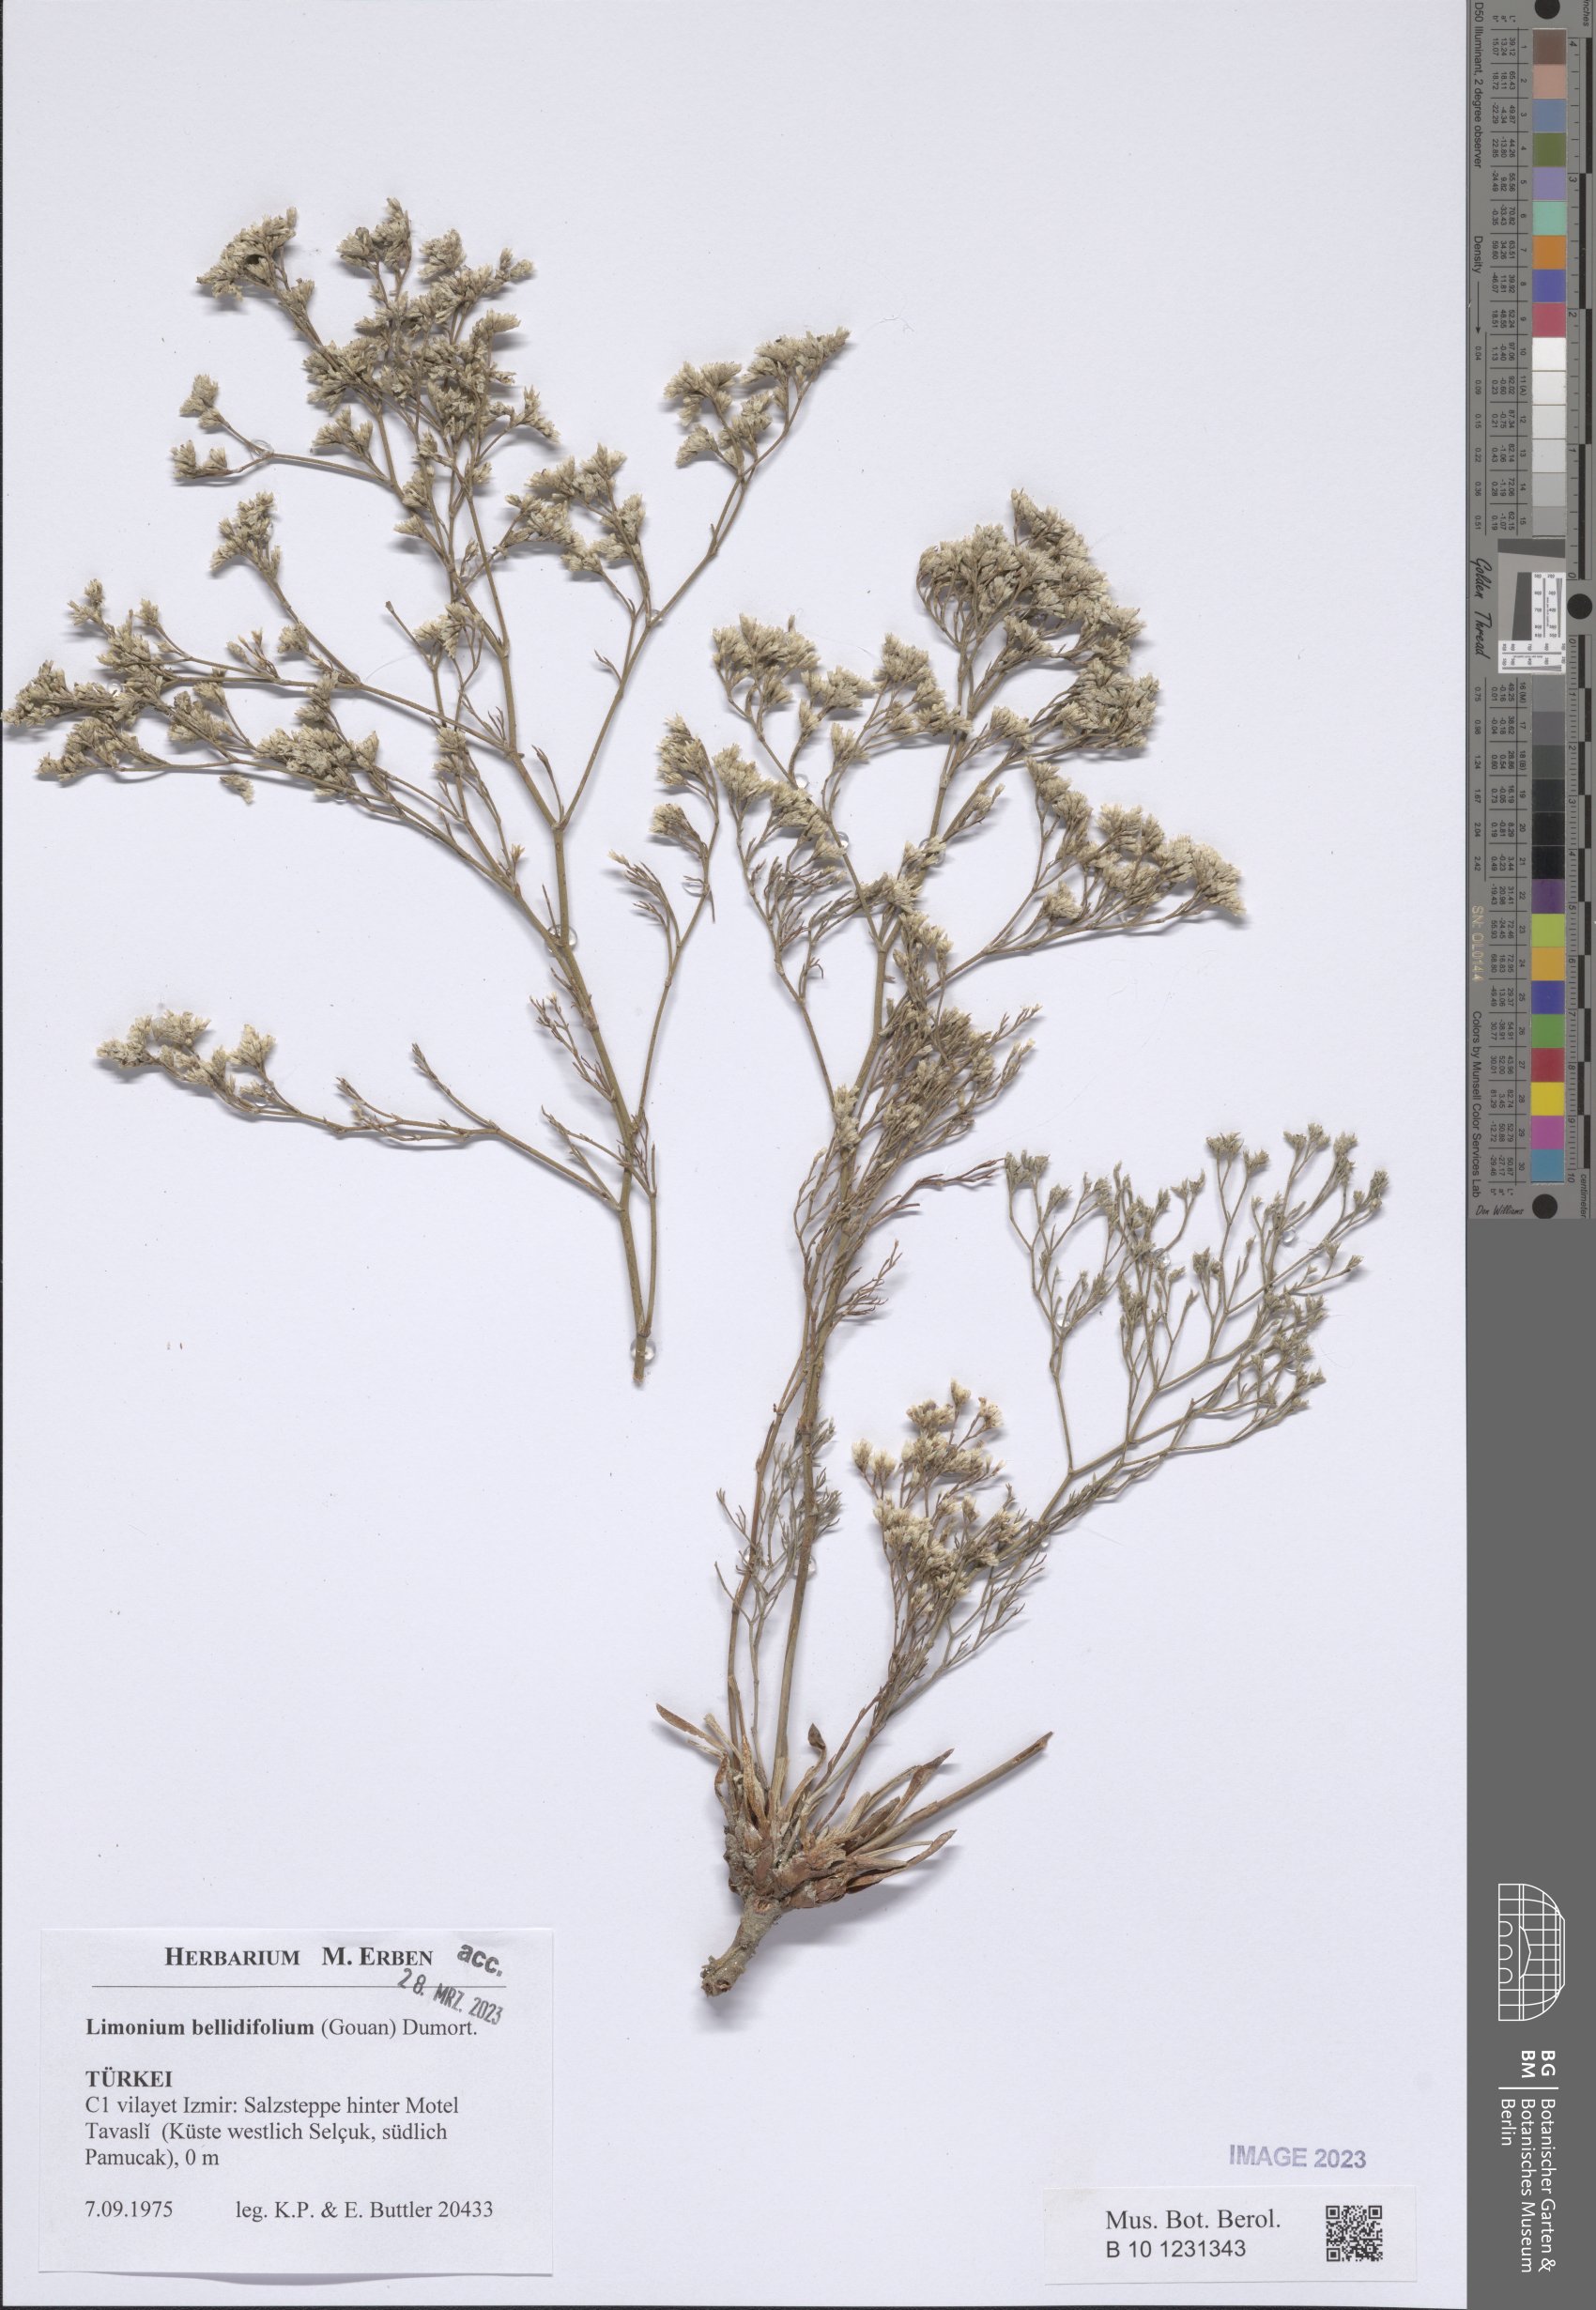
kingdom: Plantae
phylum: Tracheophyta
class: Magnoliopsida
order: Caryophyllales
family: Plumbaginaceae
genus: Limonium
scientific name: Limonium bellidifolium
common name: Matted sea-lavender
